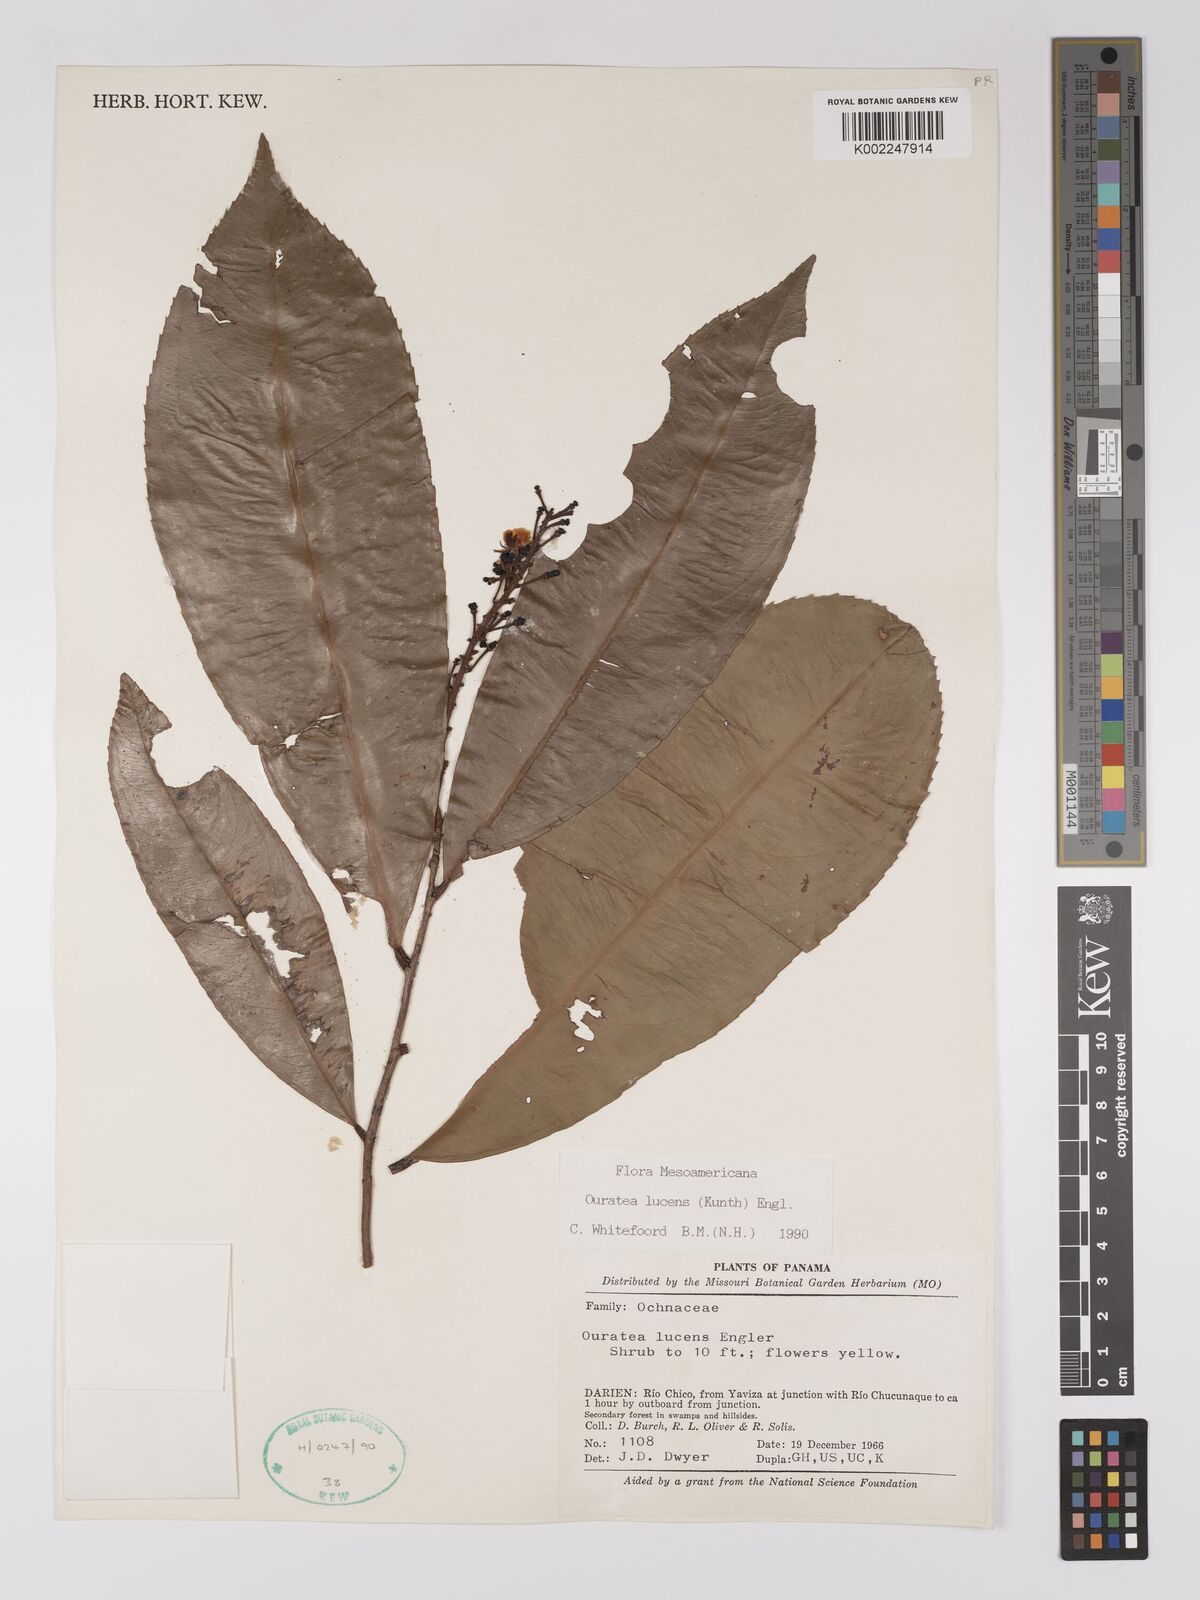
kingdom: Plantae
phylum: Tracheophyta
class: Magnoliopsida
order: Malpighiales
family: Ochnaceae
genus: Ouratea
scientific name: Ouratea lucens
